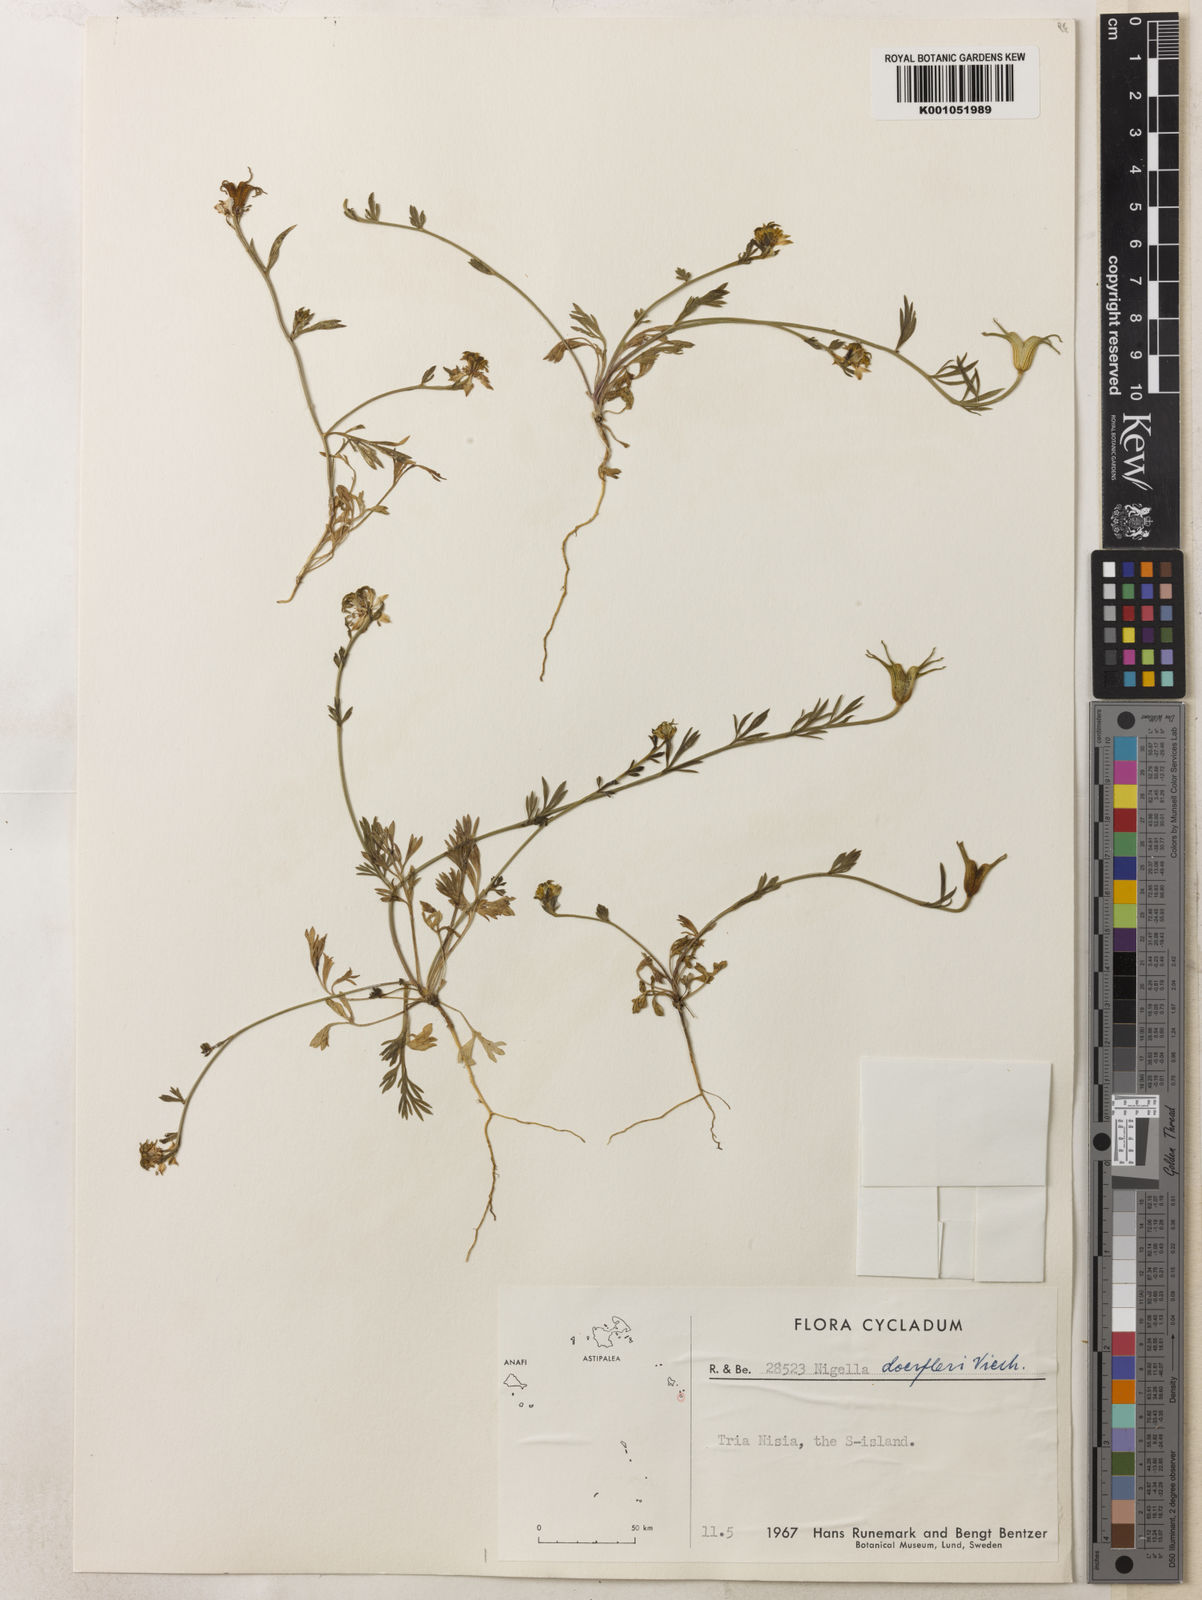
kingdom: Plantae
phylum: Tracheophyta
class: Magnoliopsida
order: Ranunculales
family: Ranunculaceae
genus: Nigella
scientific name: Nigella arvensis
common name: Wild fennel-flower
